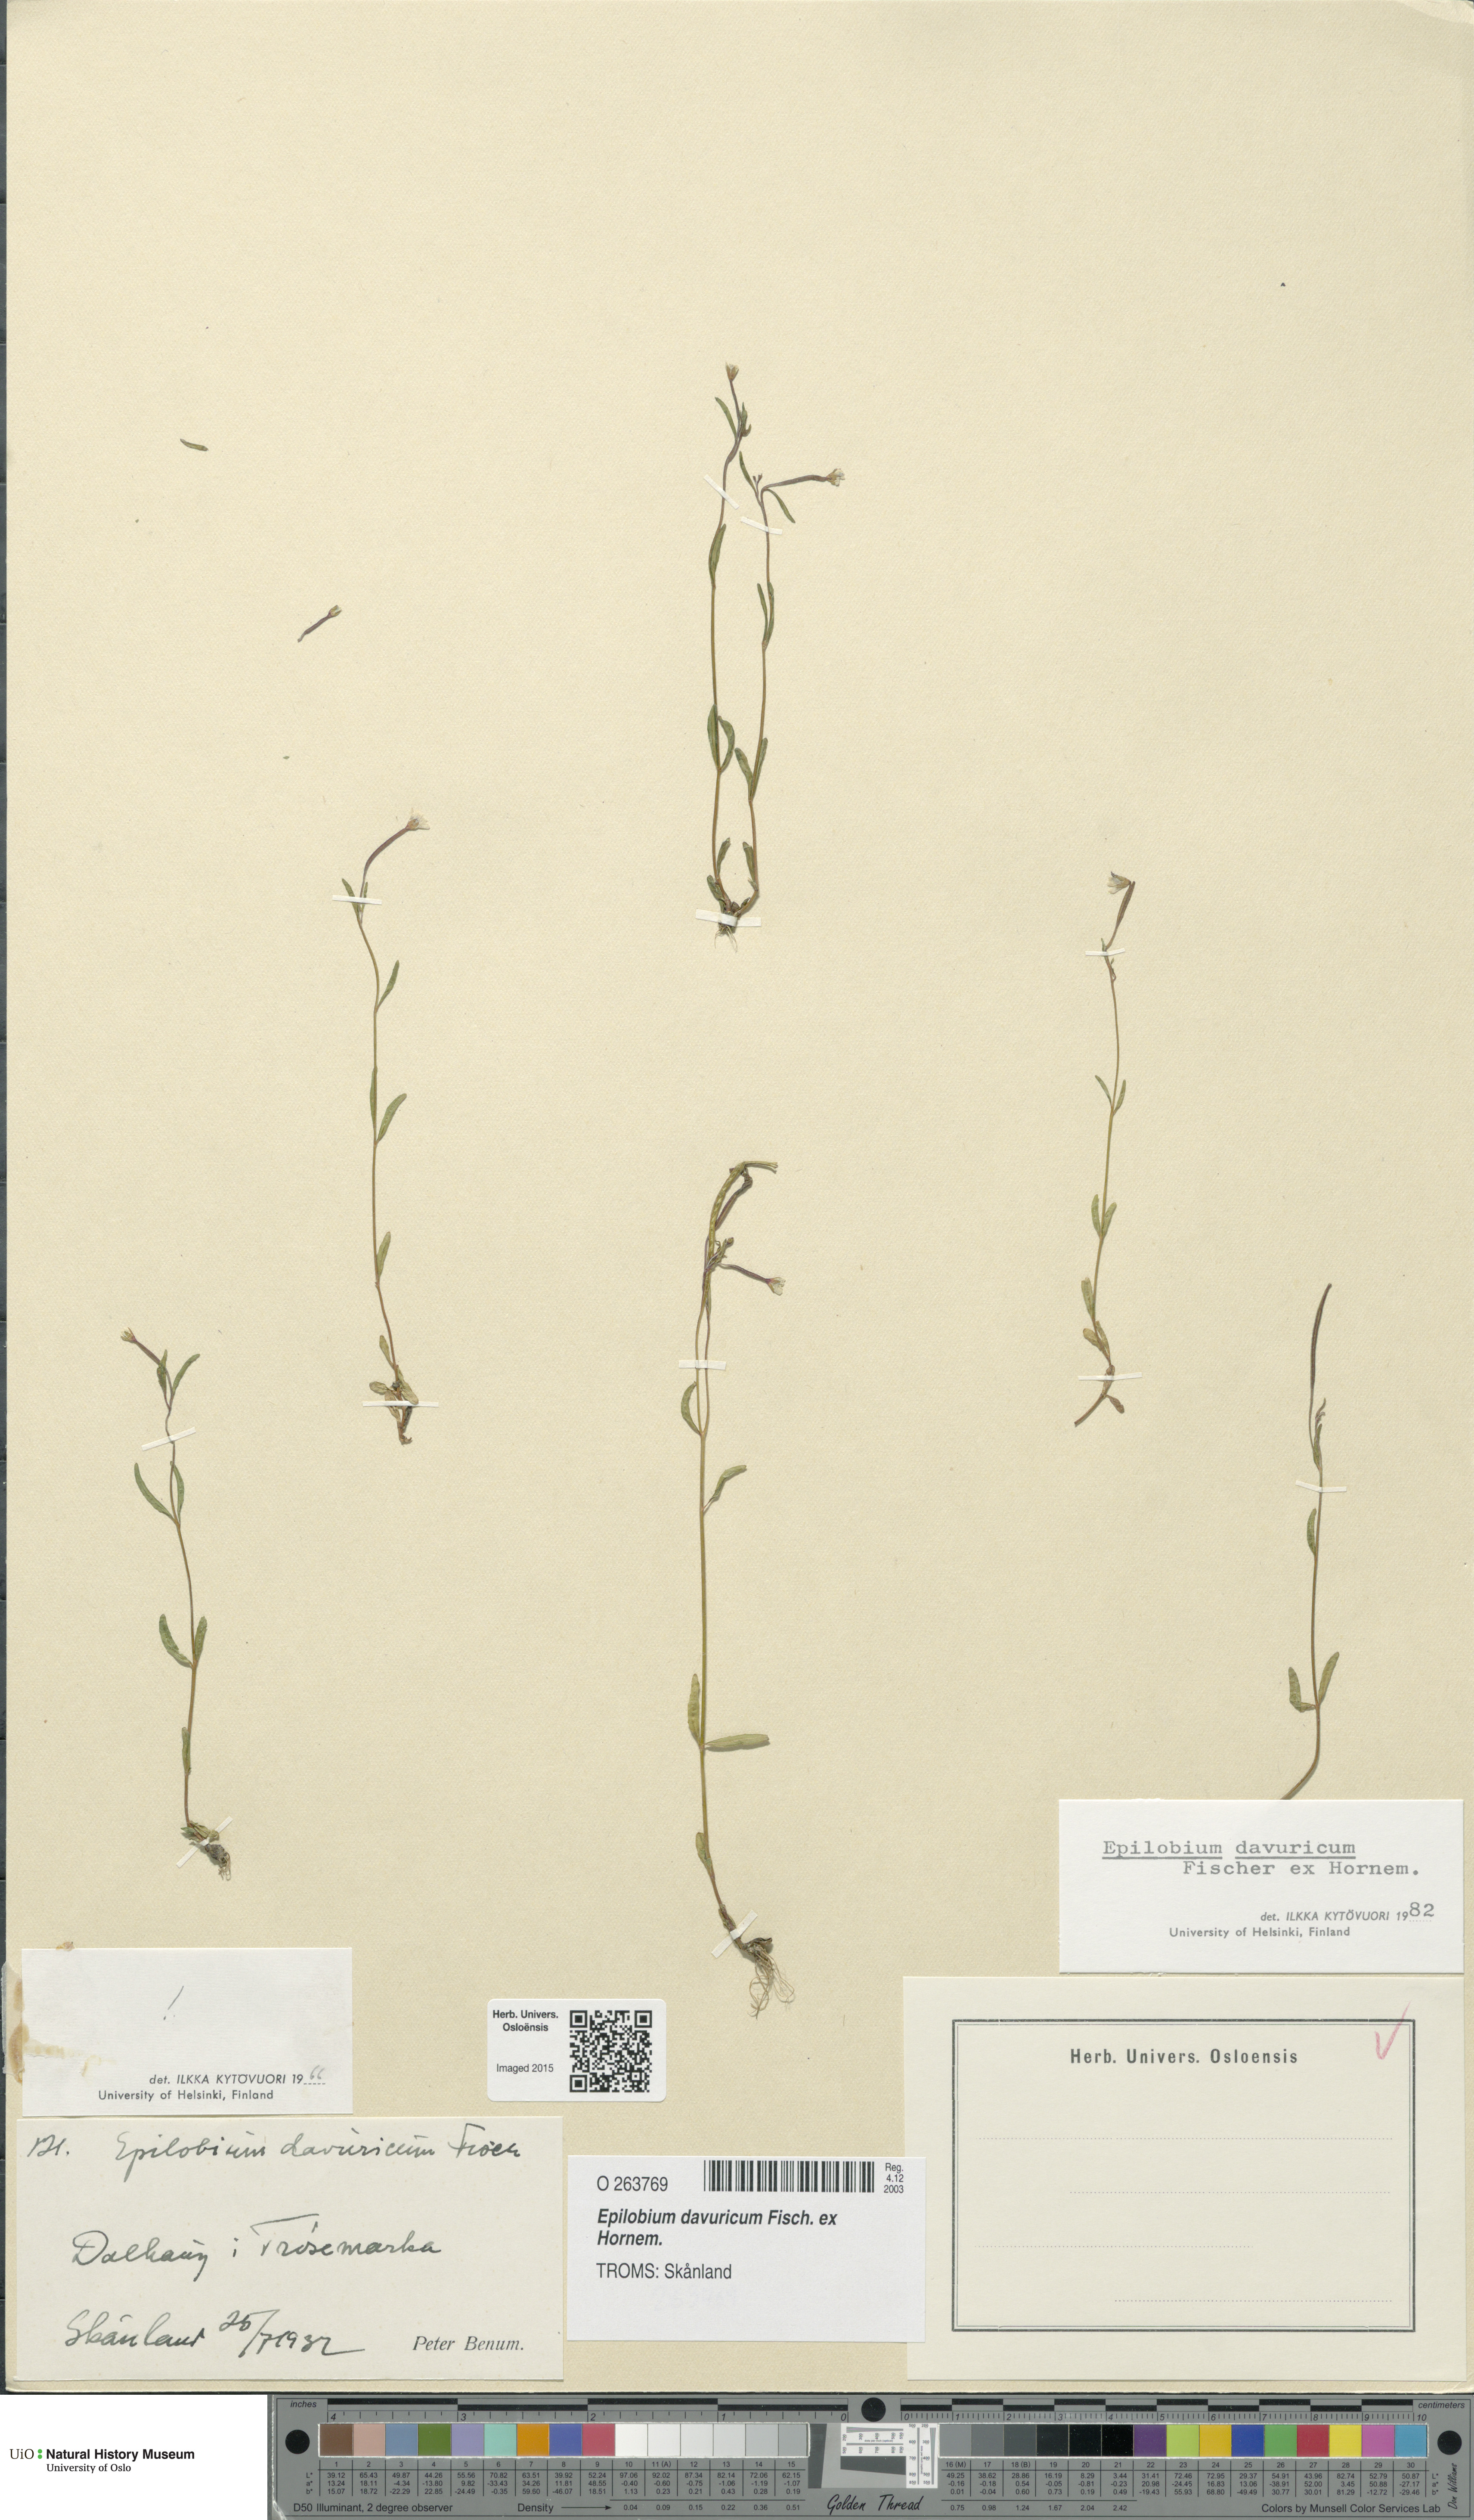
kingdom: Plantae
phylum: Tracheophyta
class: Magnoliopsida
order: Myrtales
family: Onagraceae
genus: Epilobium
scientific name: Epilobium davuricum
